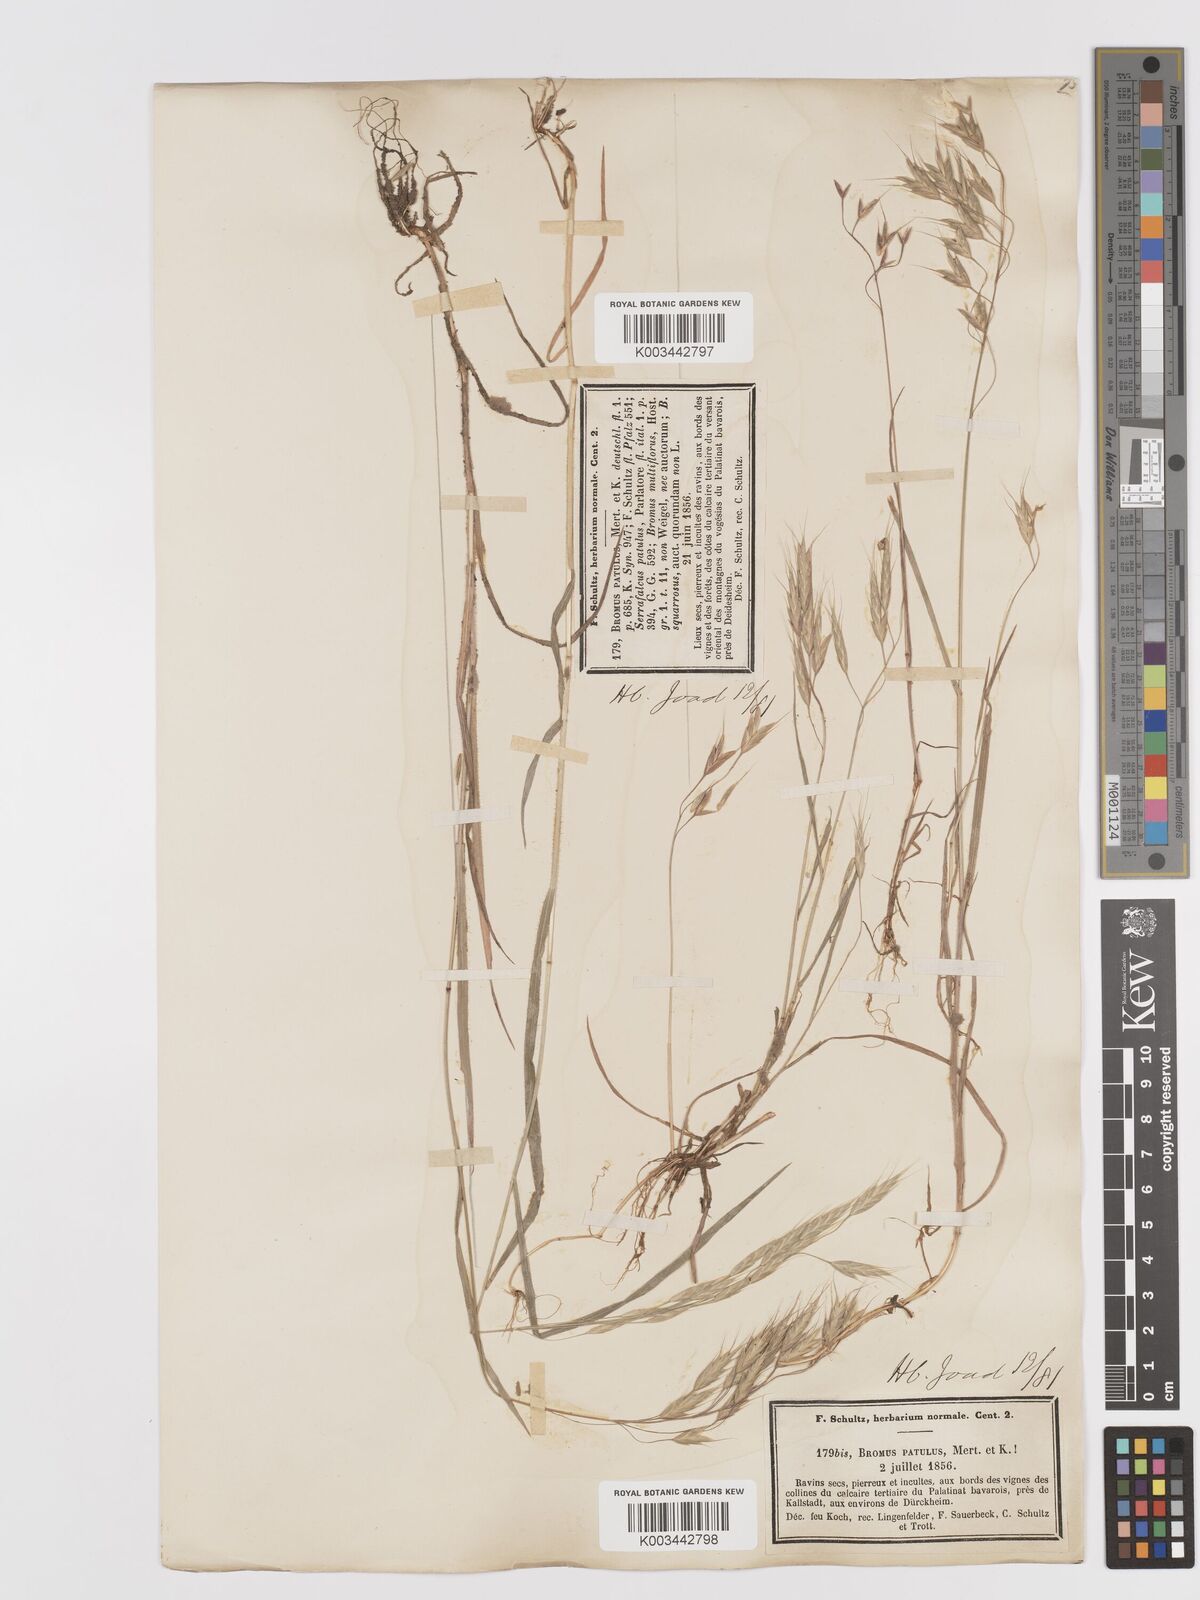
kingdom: Plantae
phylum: Tracheophyta
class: Liliopsida
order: Poales
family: Poaceae
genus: Bromus
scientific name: Bromus japonicus
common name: Japanese brome
